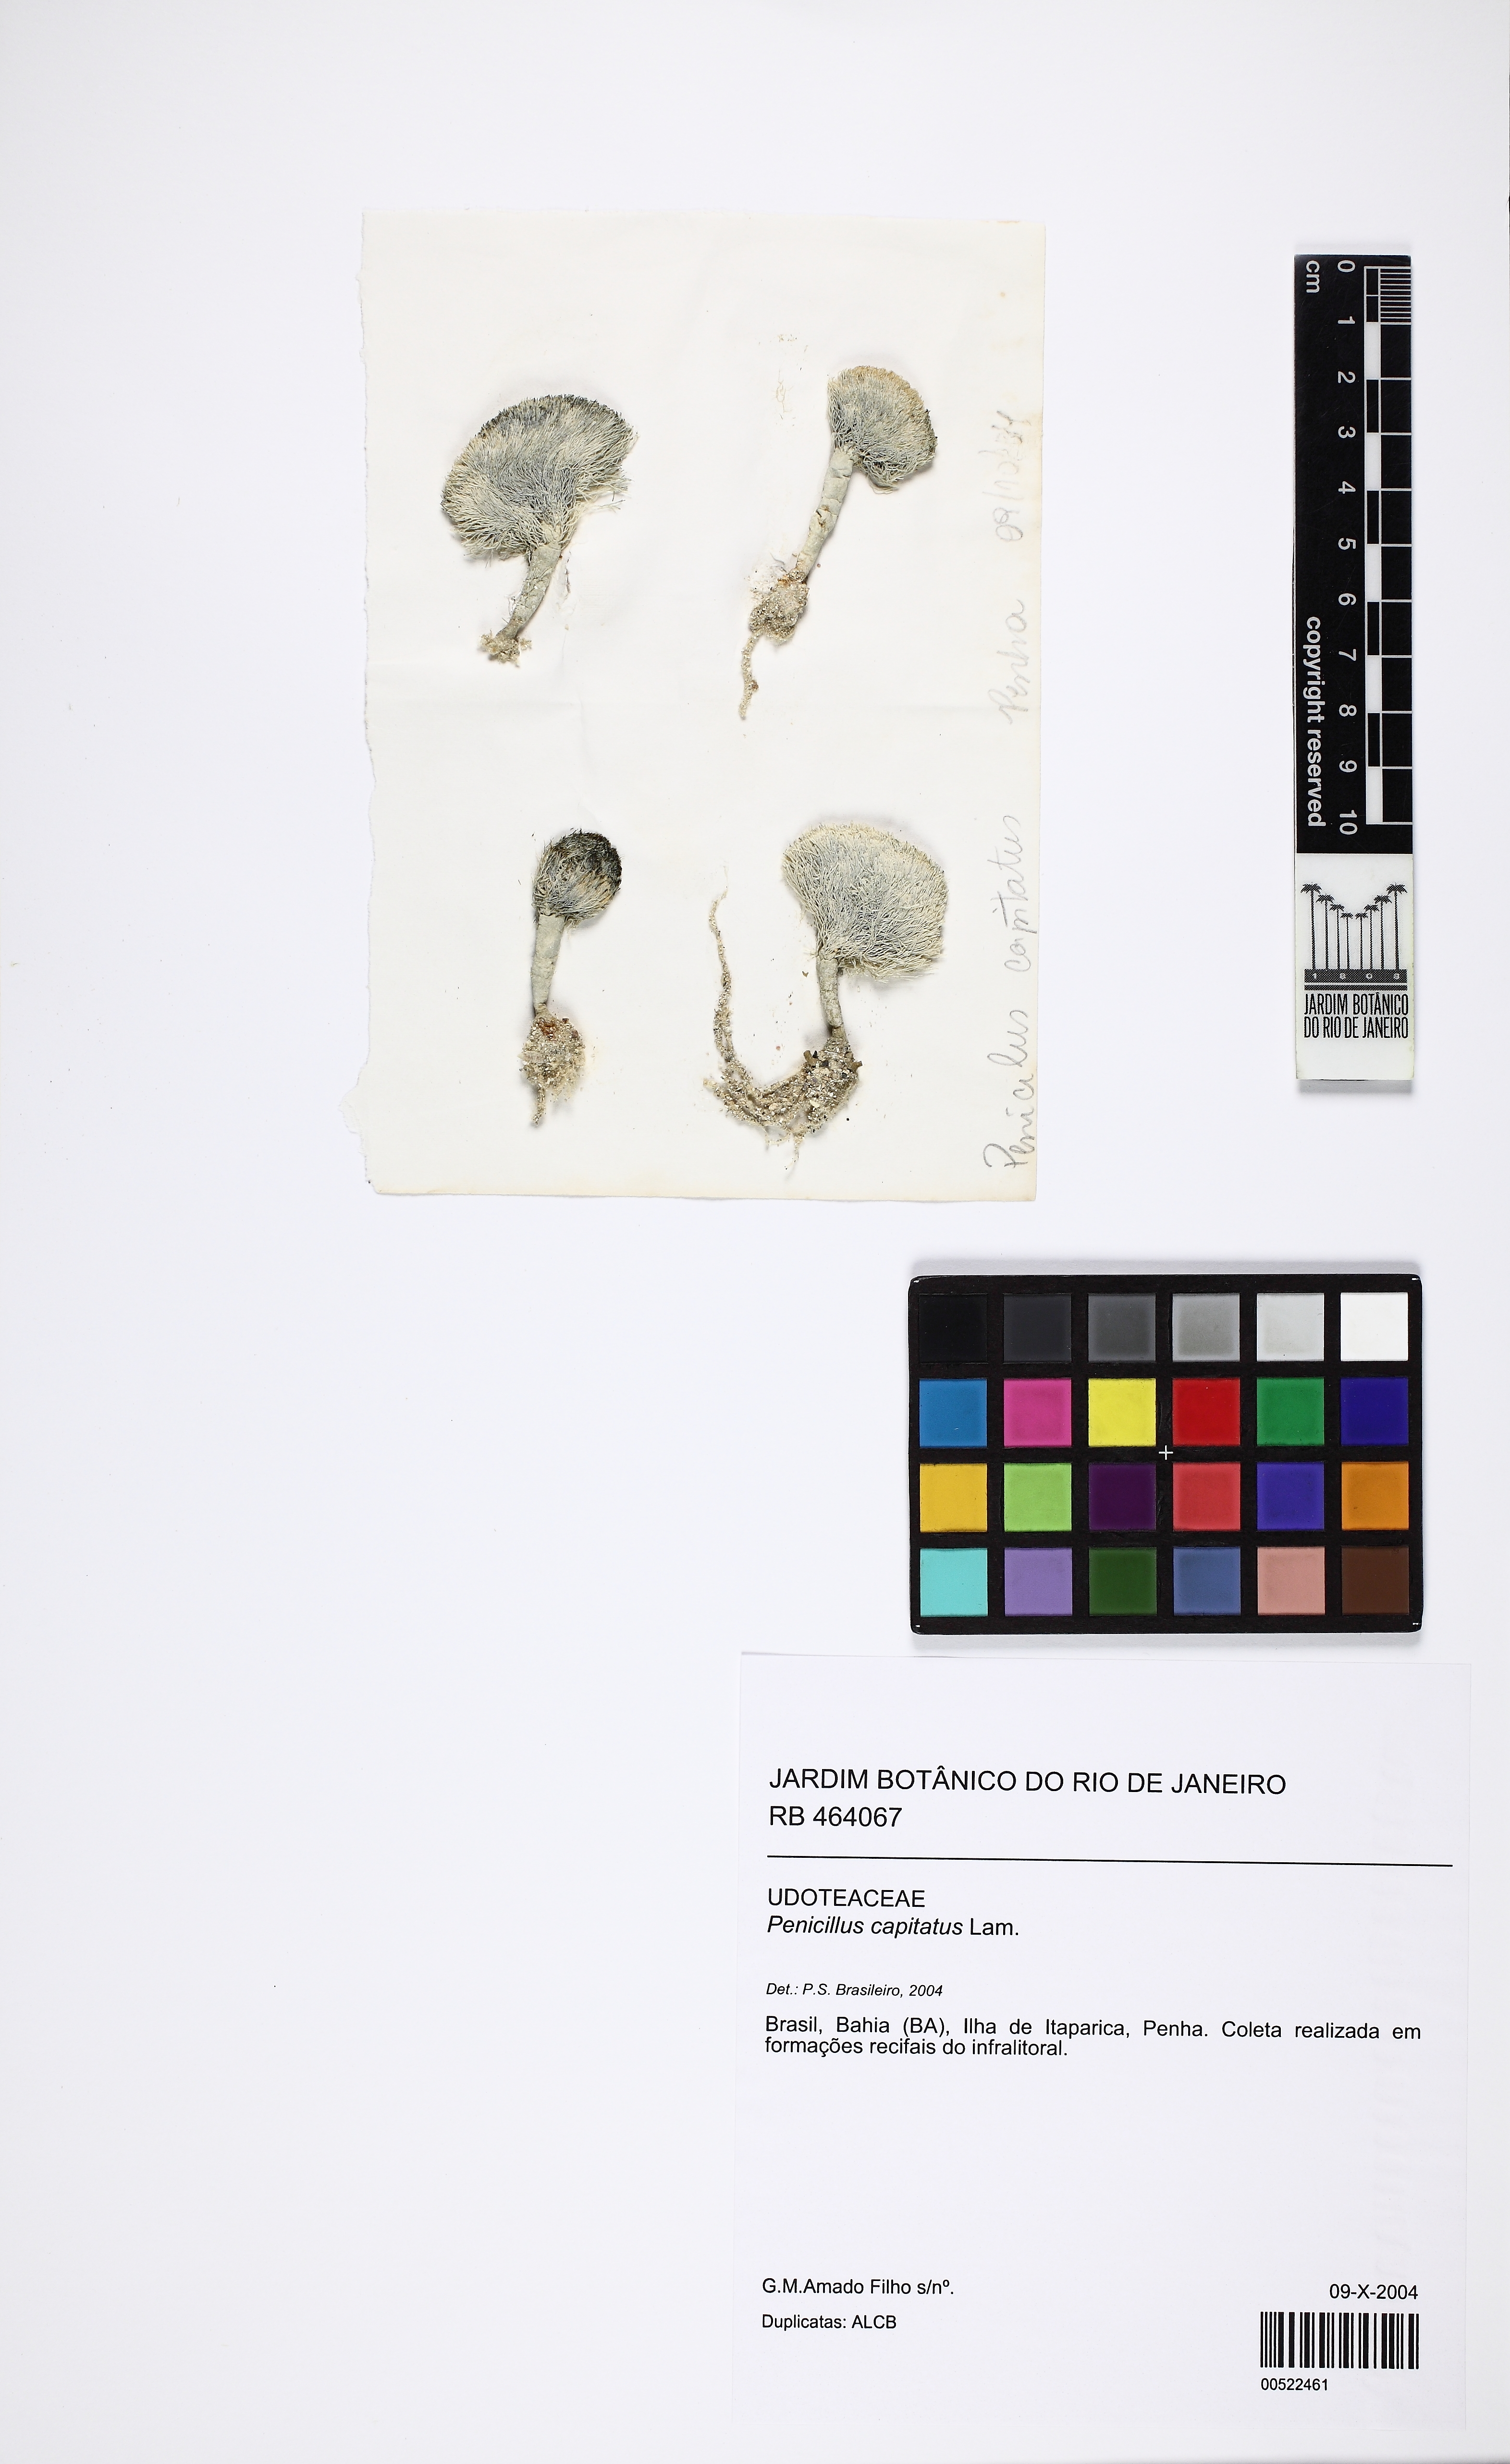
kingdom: Plantae
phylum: Chlorophyta
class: Ulvophyceae
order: Bryopsidales
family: Udoteaceae
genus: Penicillus
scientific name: Penicillus capitatus
